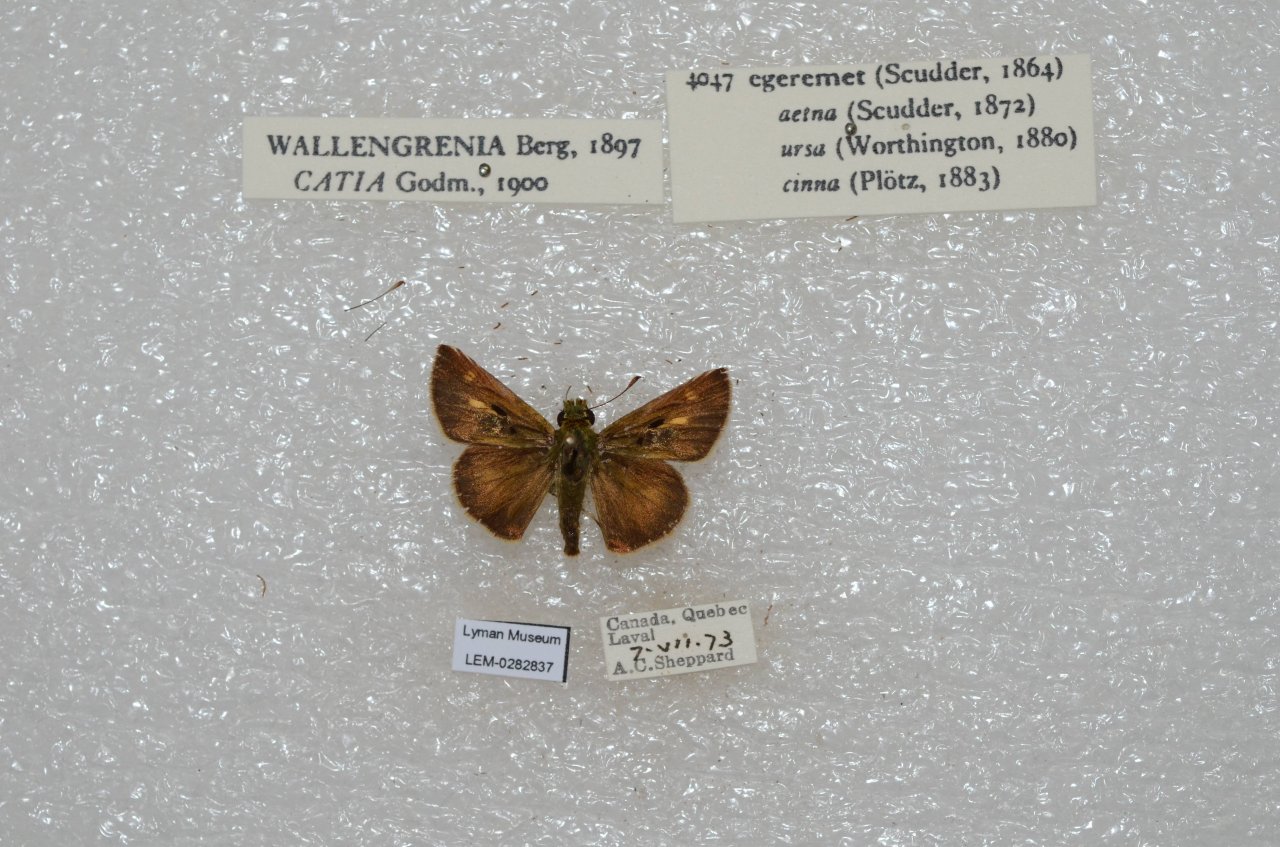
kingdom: Animalia
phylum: Arthropoda
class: Insecta
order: Lepidoptera
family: Hesperiidae
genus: Polites
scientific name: Polites egeremet
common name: Northern Broken-Dash
